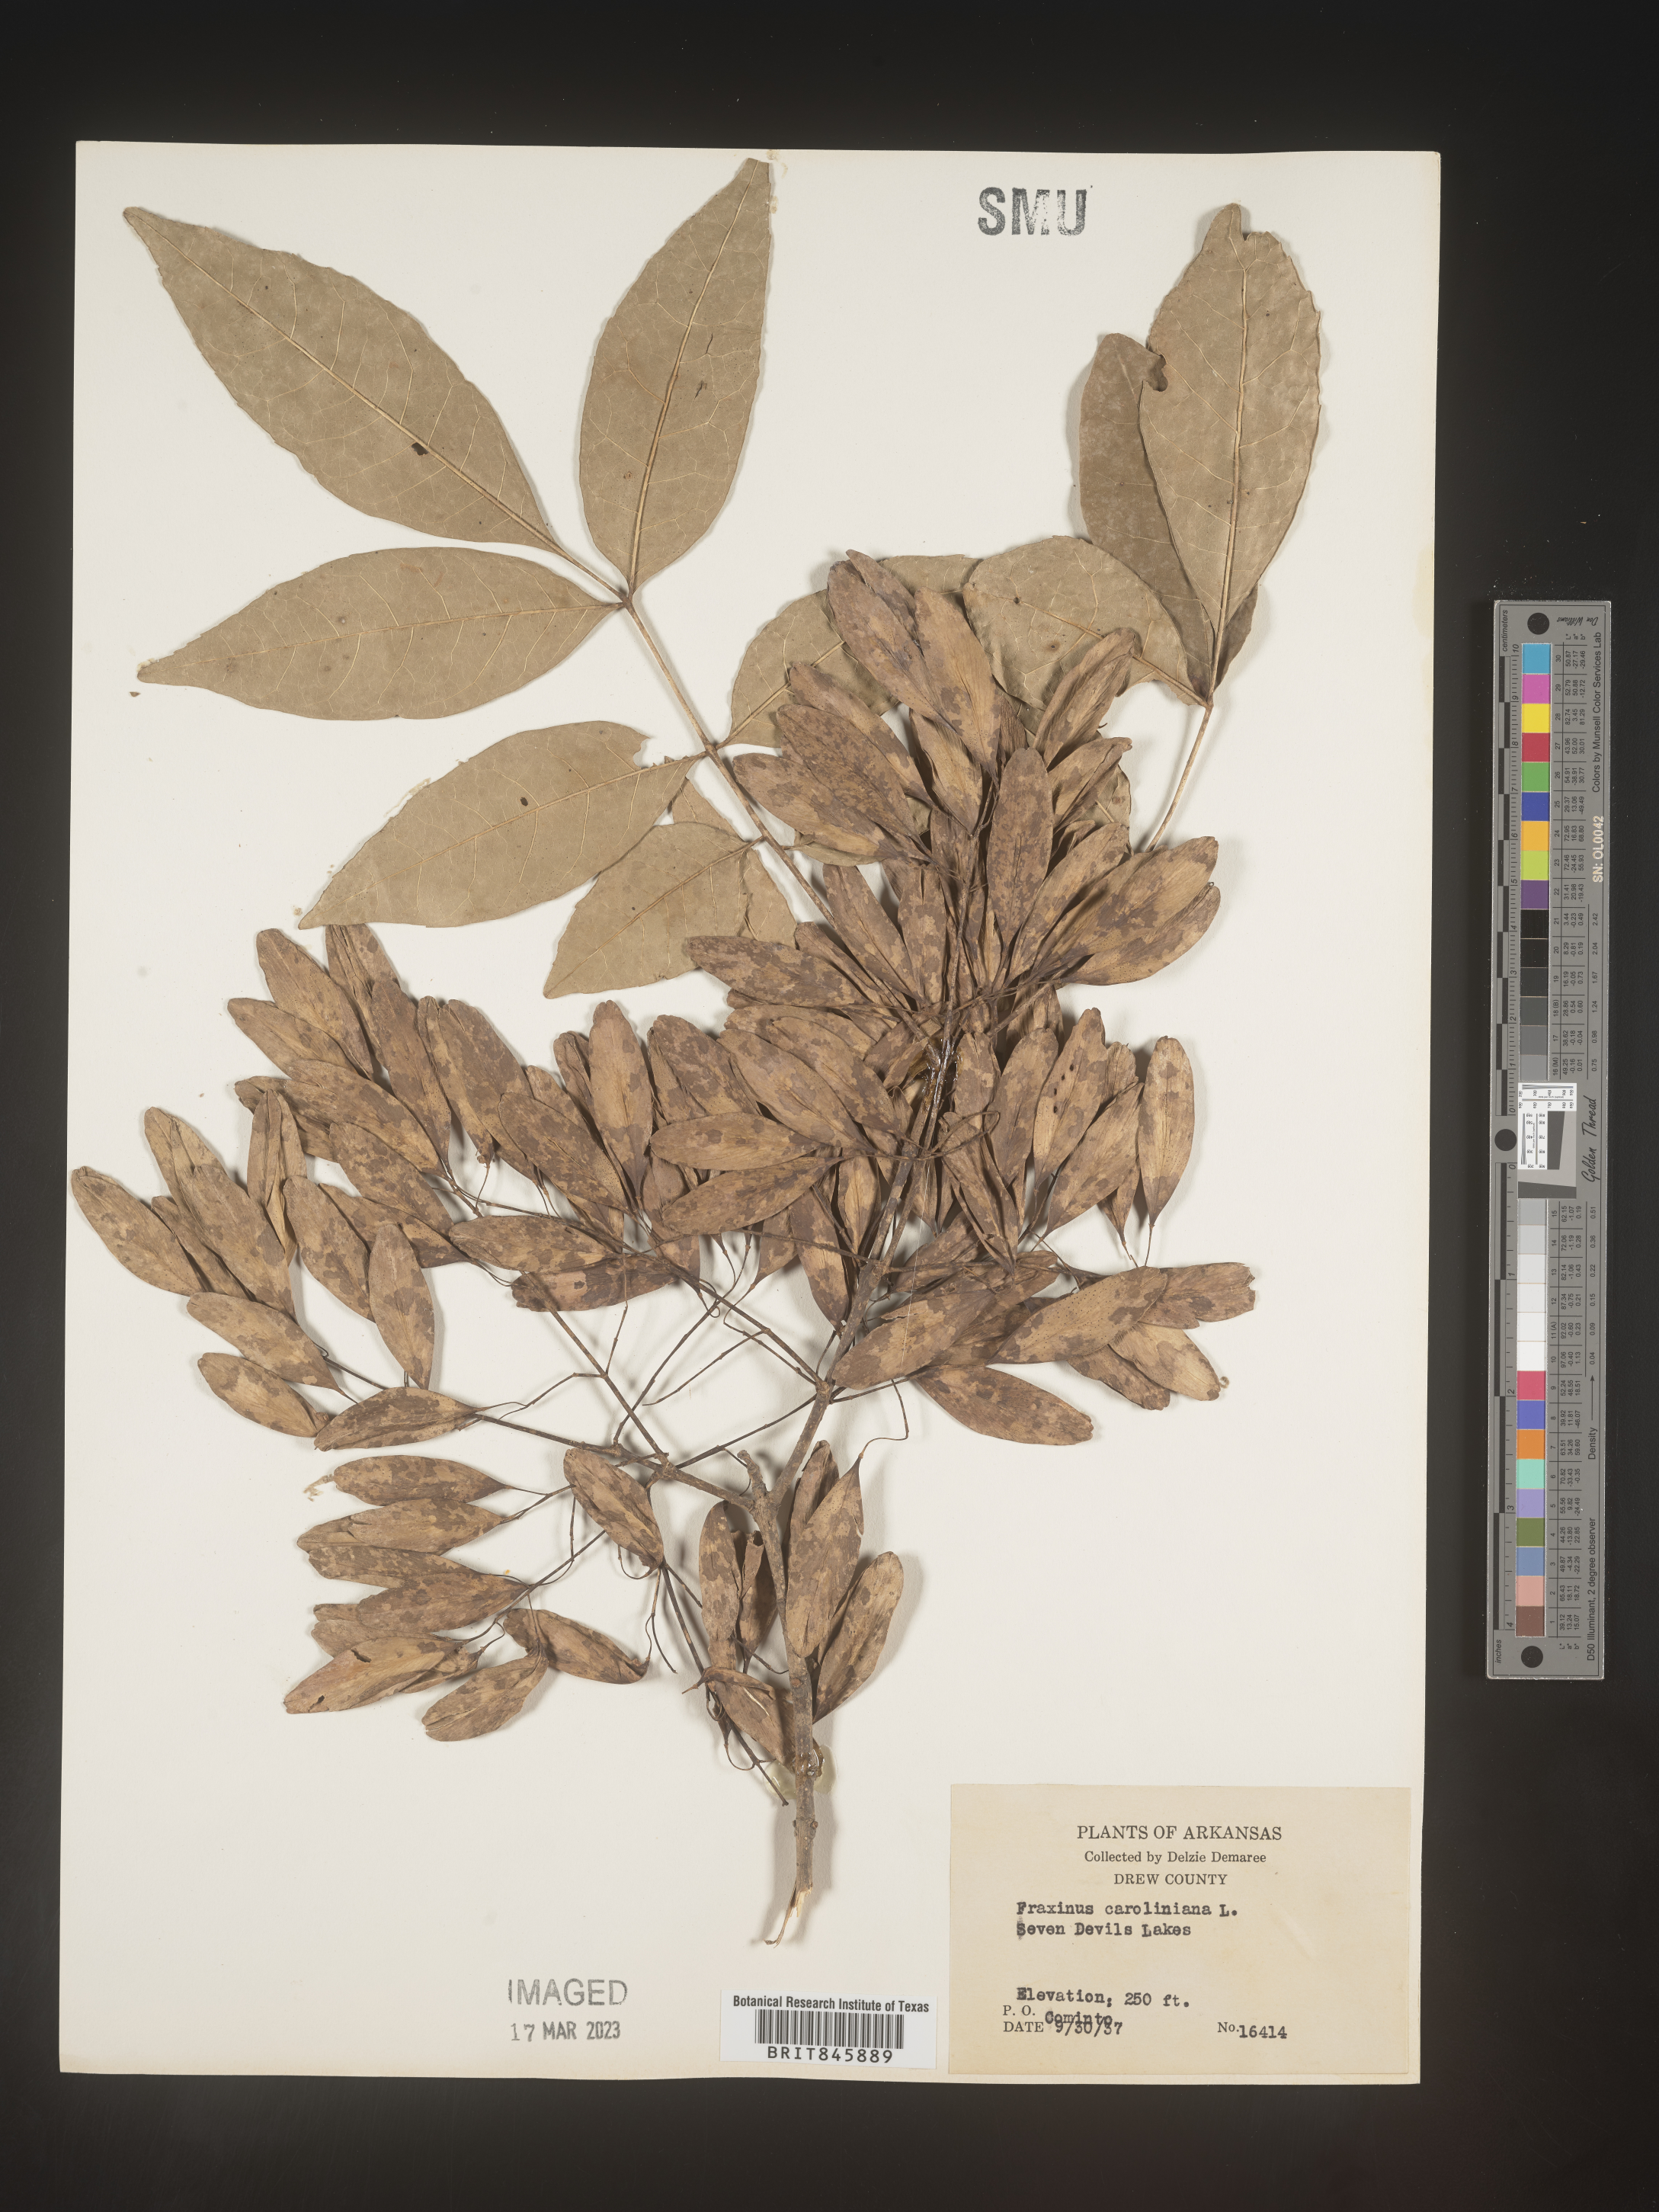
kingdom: Plantae
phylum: Tracheophyta
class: Magnoliopsida
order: Lamiales
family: Oleaceae
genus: Fraxinus
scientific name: Fraxinus caroliniana
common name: Carolina ash
